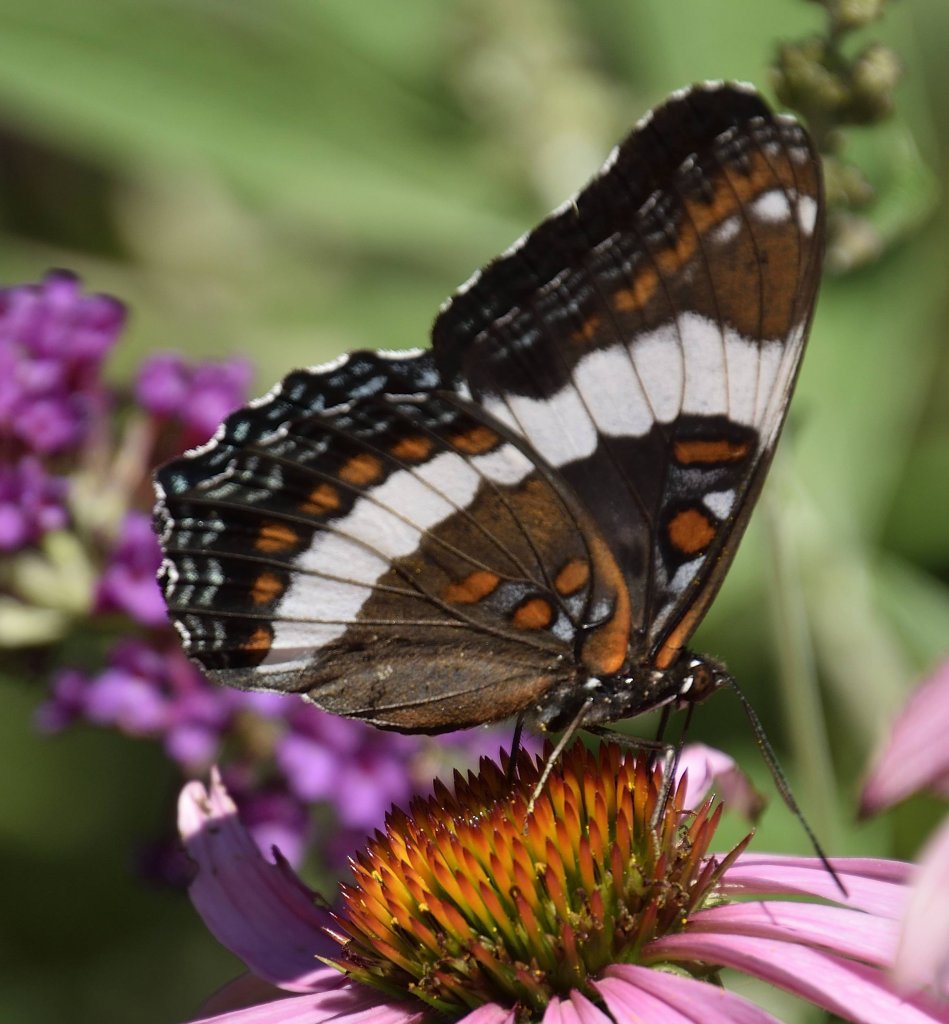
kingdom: Animalia
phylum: Arthropoda
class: Insecta
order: Lepidoptera
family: Nymphalidae
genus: Limenitis
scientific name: Limenitis arthemis
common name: Red-spotted Admiral
